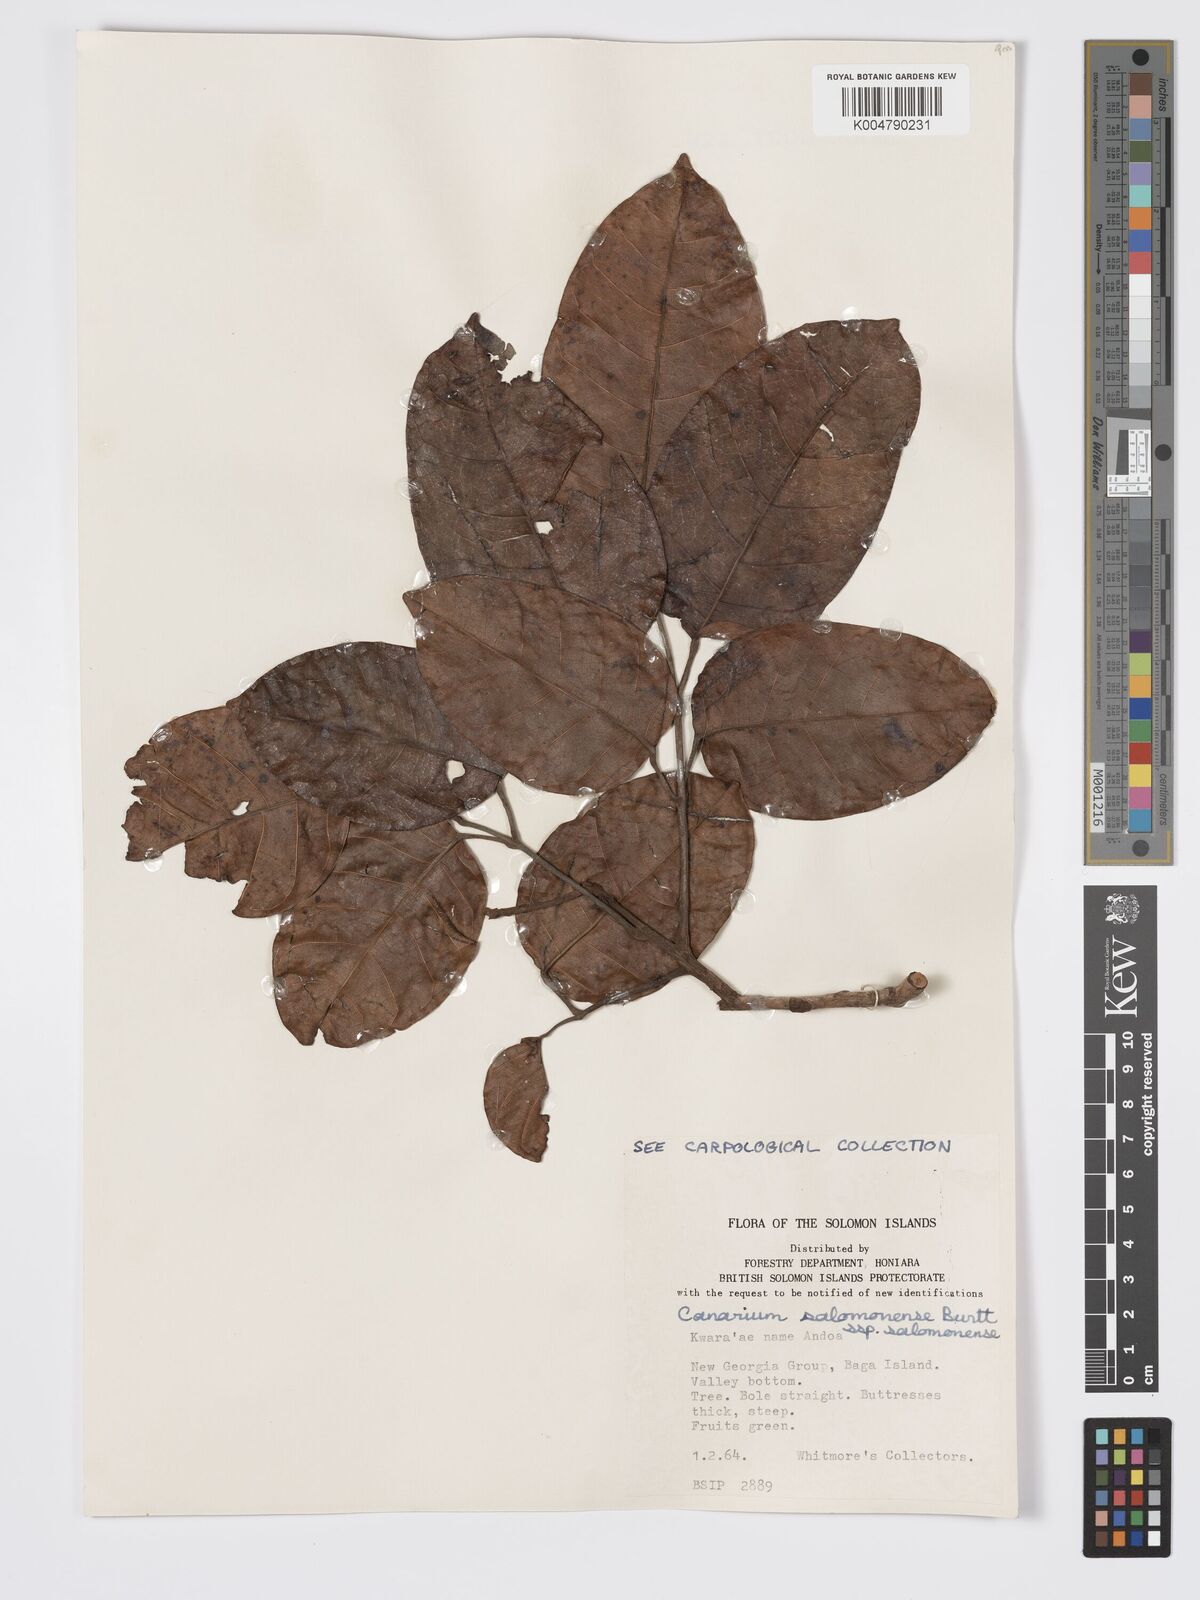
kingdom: Plantae
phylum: Tracheophyta
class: Magnoliopsida
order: Sapindales
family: Burseraceae
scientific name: Burseraceae
